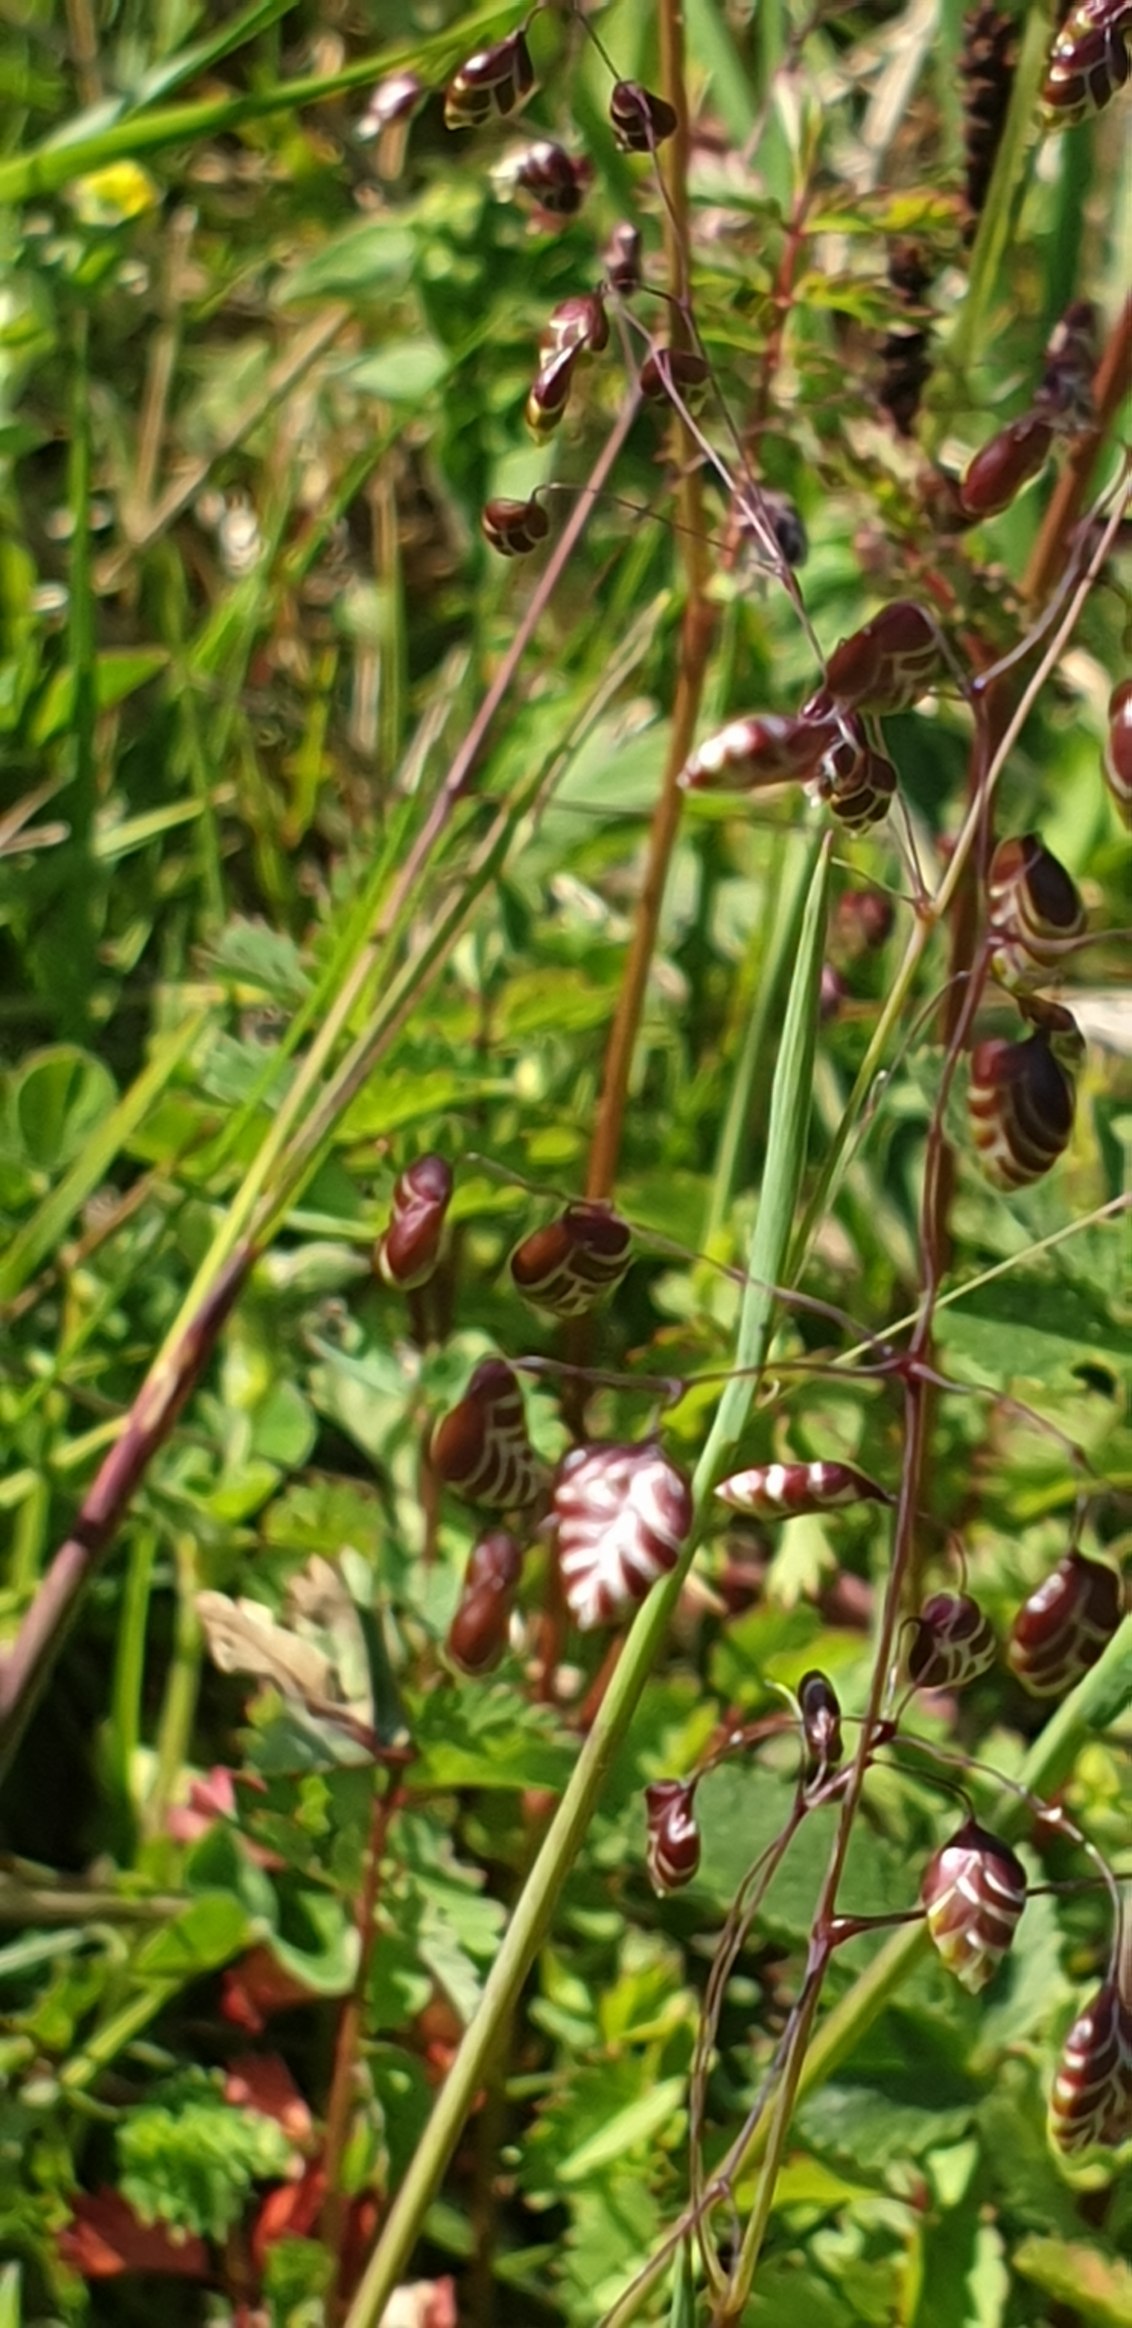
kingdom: Plantae
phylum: Tracheophyta
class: Liliopsida
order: Poales
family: Poaceae
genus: Briza
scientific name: Briza media
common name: Hjertegræs
